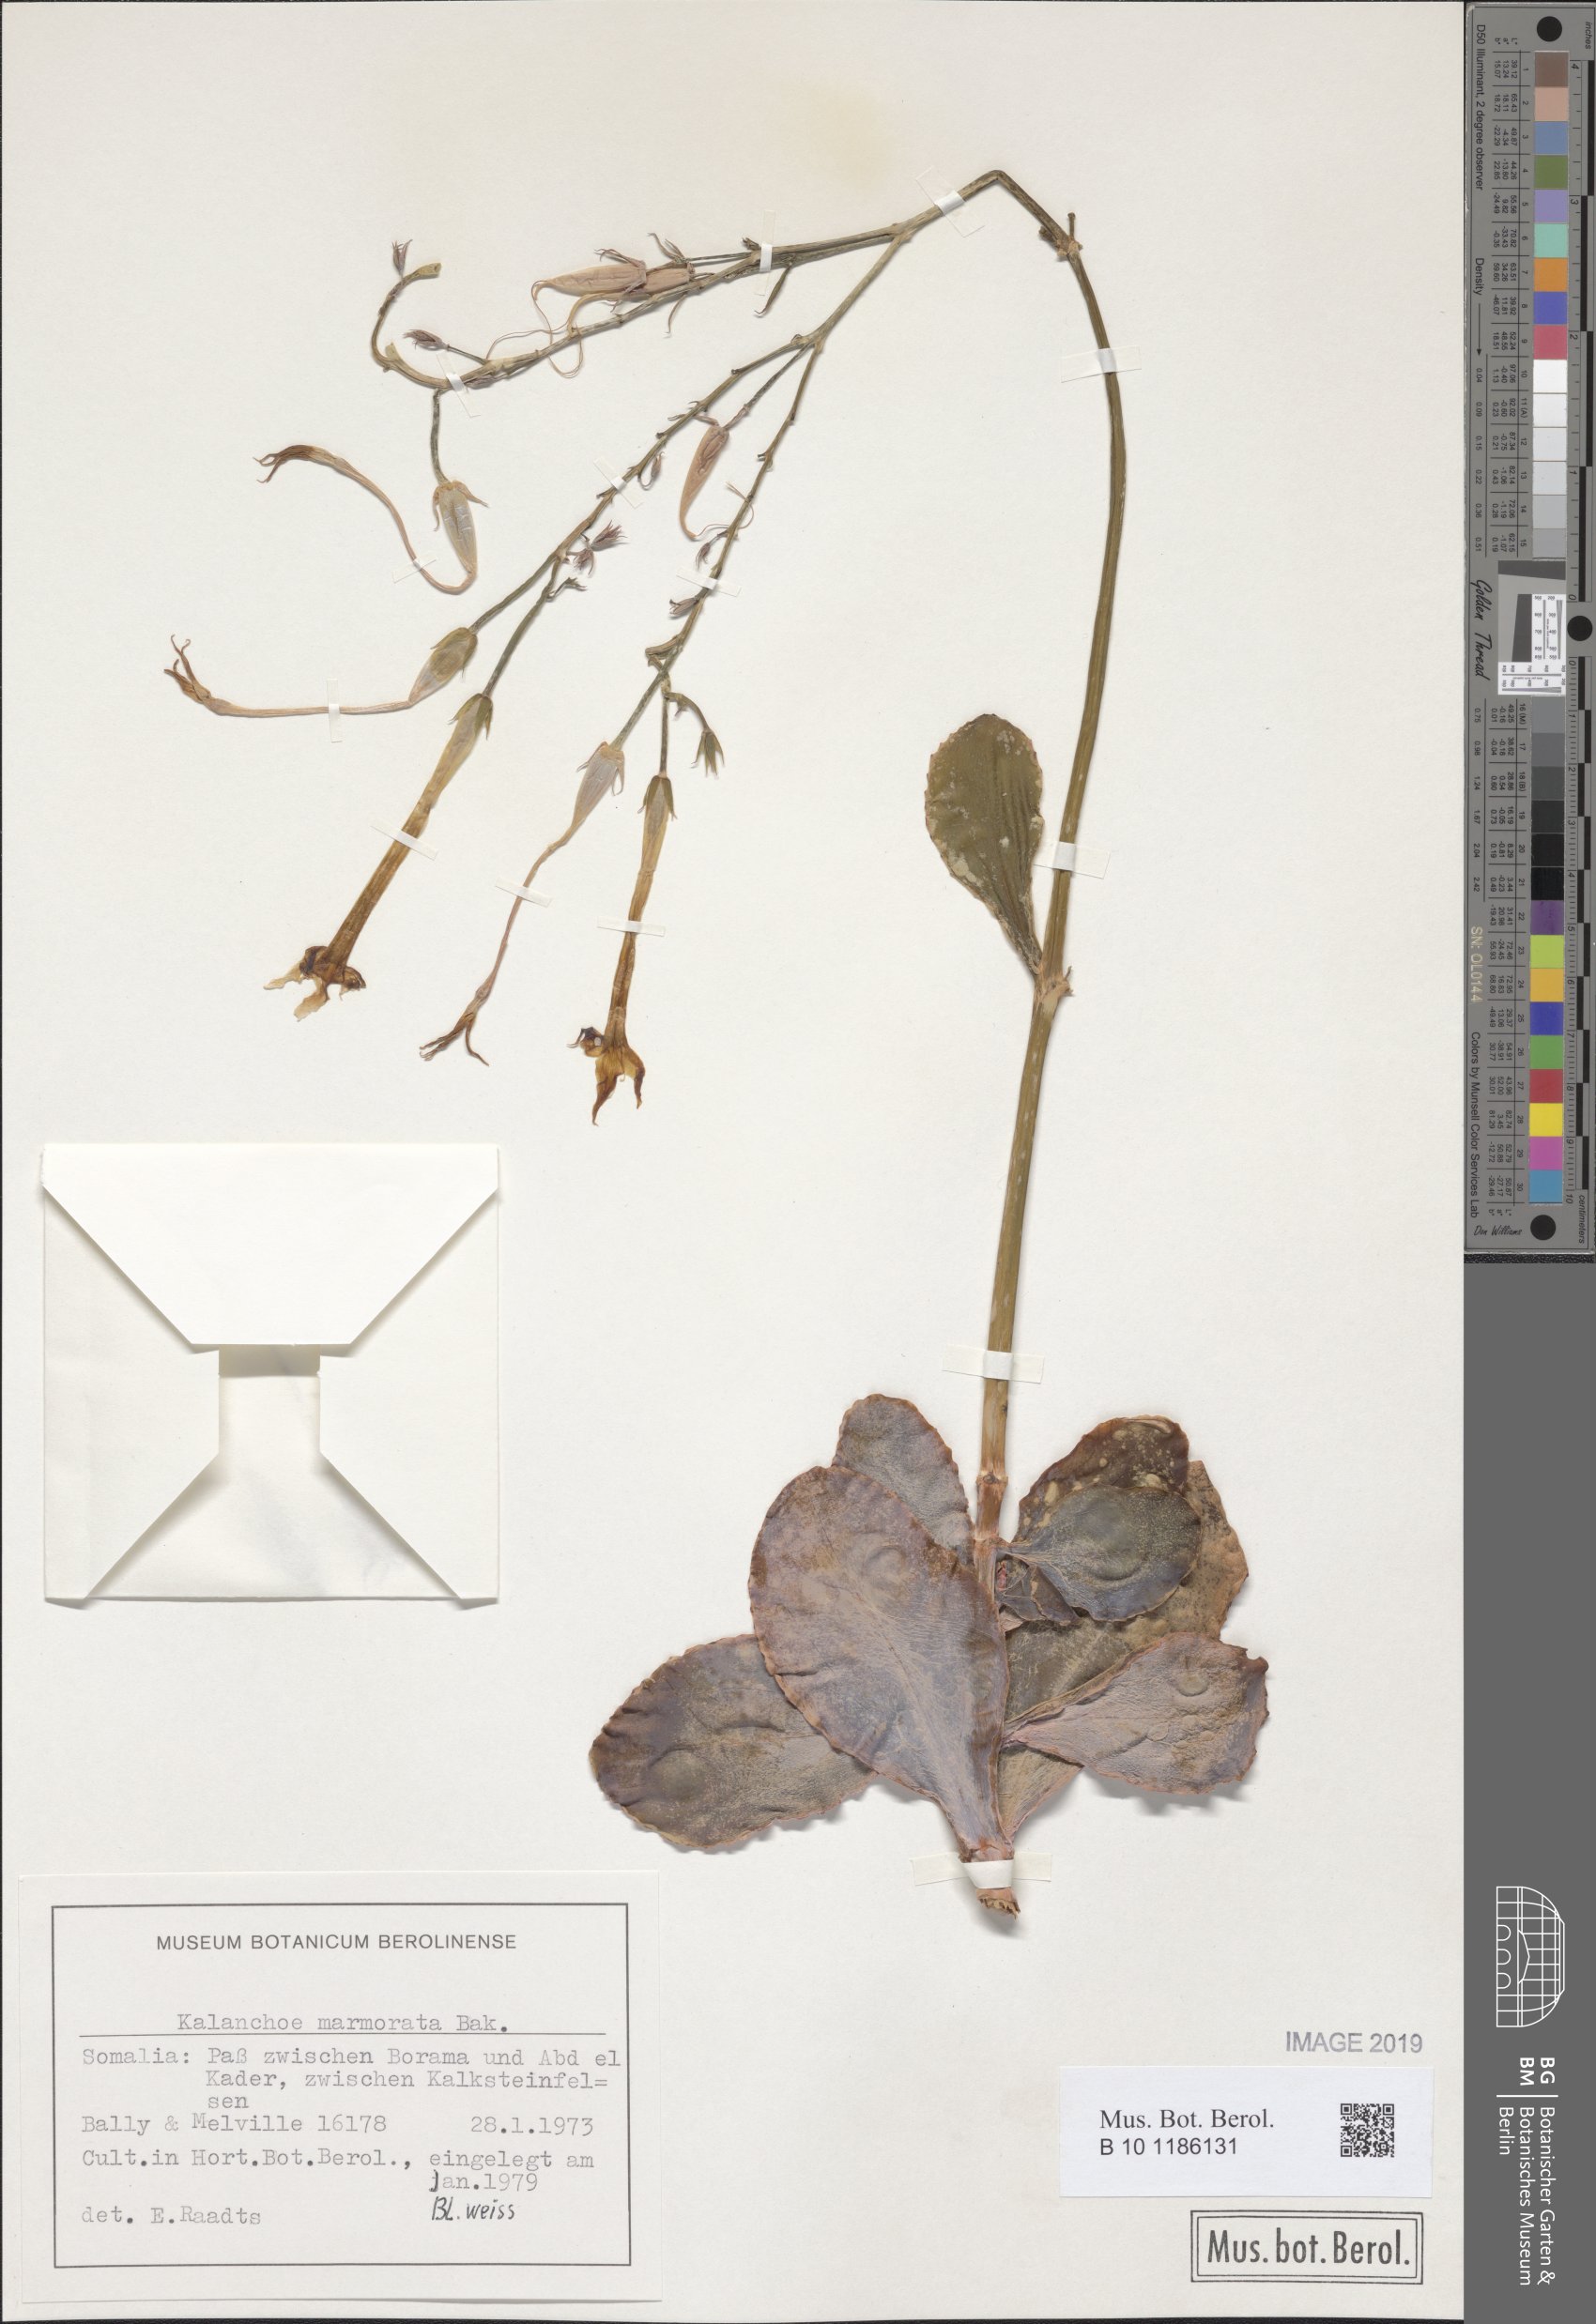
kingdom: Plantae
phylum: Tracheophyta
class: Magnoliopsida
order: Saxifragales
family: Crassulaceae
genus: Kalanchoe
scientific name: Kalanchoe marmorata
